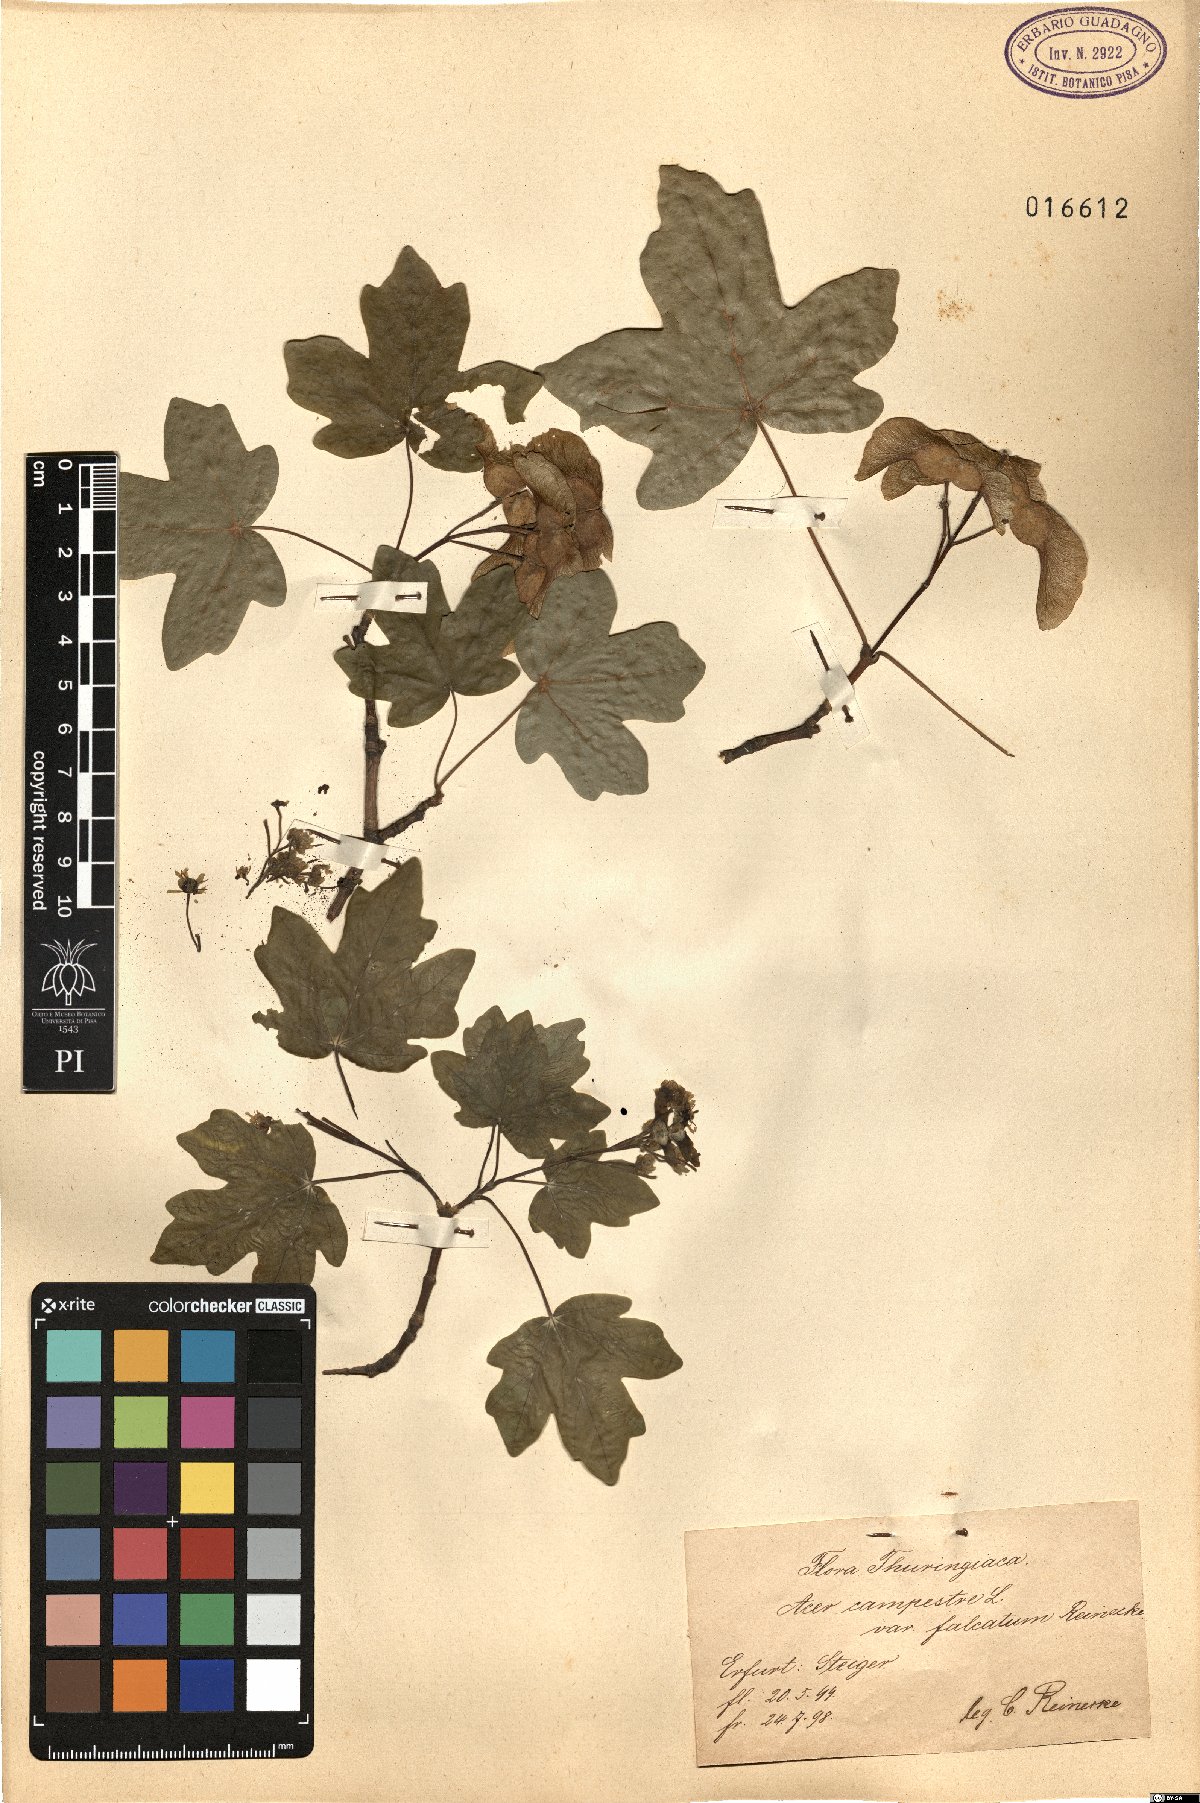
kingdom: Plantae
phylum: Tracheophyta
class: Magnoliopsida
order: Sapindales
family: Sapindaceae
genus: Acer
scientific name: Acer campestre
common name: Field maple
